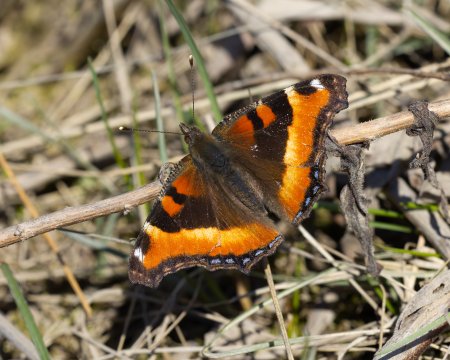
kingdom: Animalia
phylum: Arthropoda
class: Insecta
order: Lepidoptera
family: Nymphalidae
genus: Aglais
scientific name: Aglais milberti
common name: Milbert's Tortoiseshell
